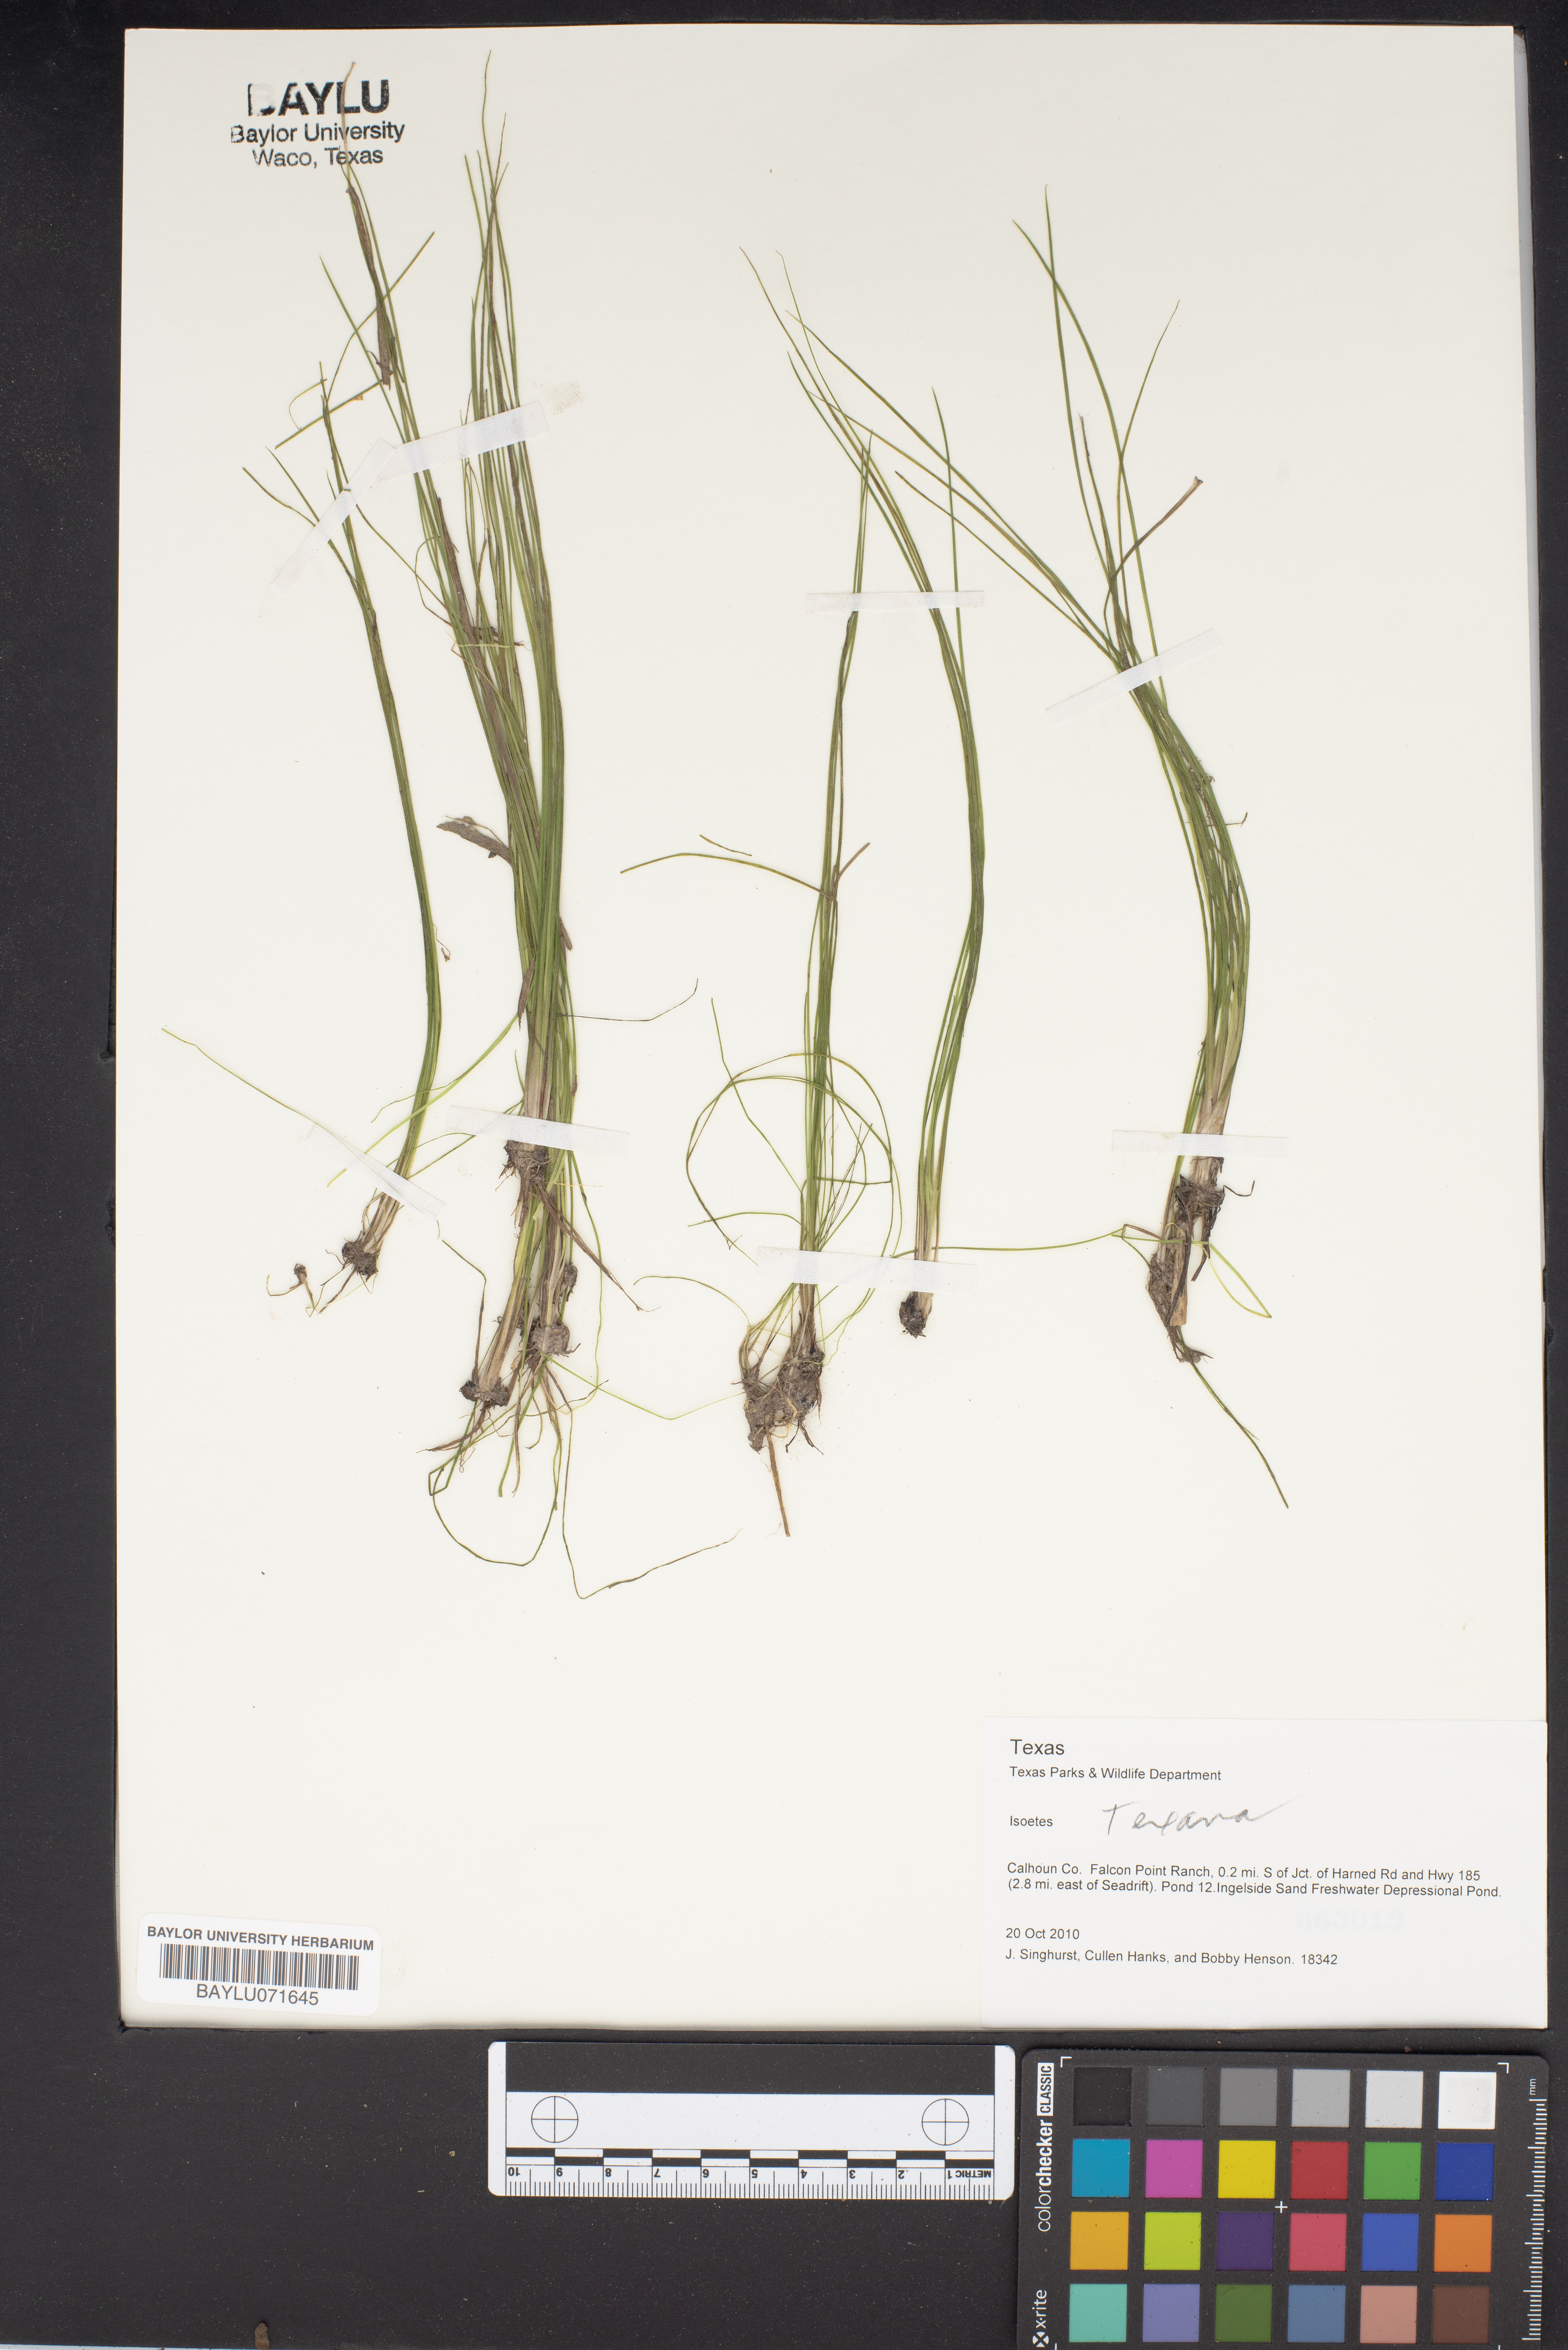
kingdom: Plantae
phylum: Tracheophyta
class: Lycopodiopsida
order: Isoetales
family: Isoetaceae
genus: Isoetes
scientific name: Isoetes texana
